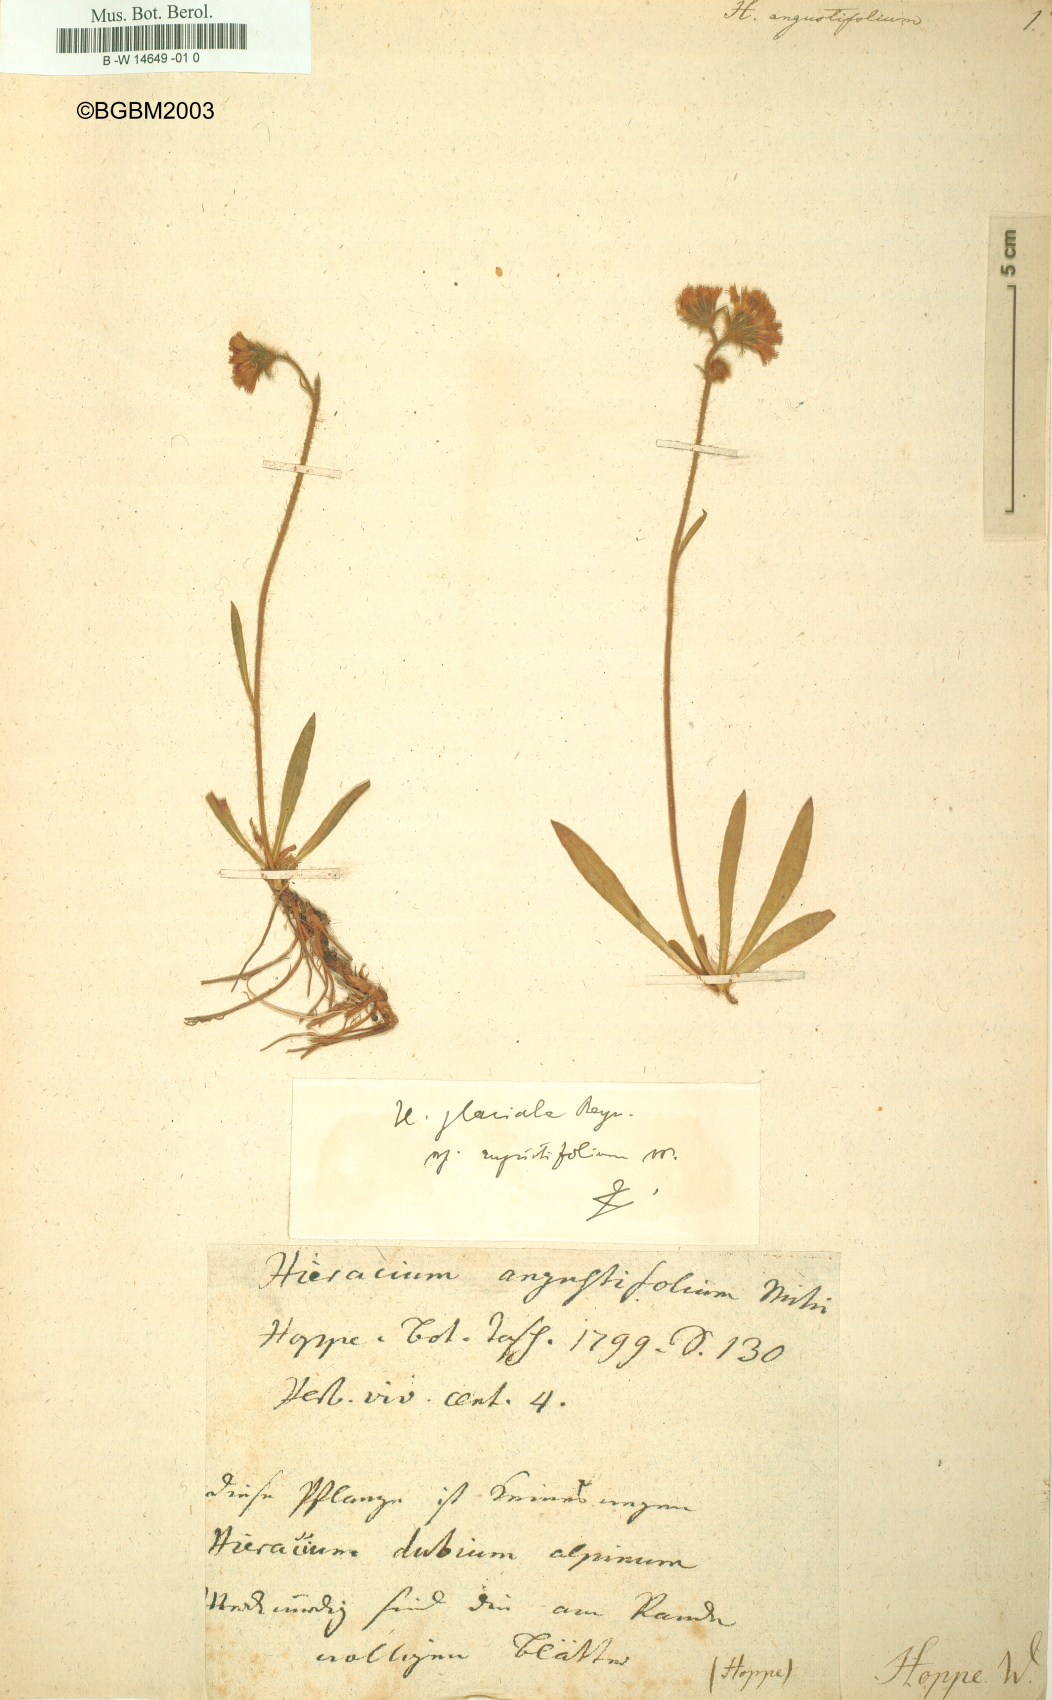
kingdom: Plantae
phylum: Tracheophyta
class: Magnoliopsida
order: Asterales
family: Asteraceae
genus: Hieracium
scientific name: Hieracium angustifolium
